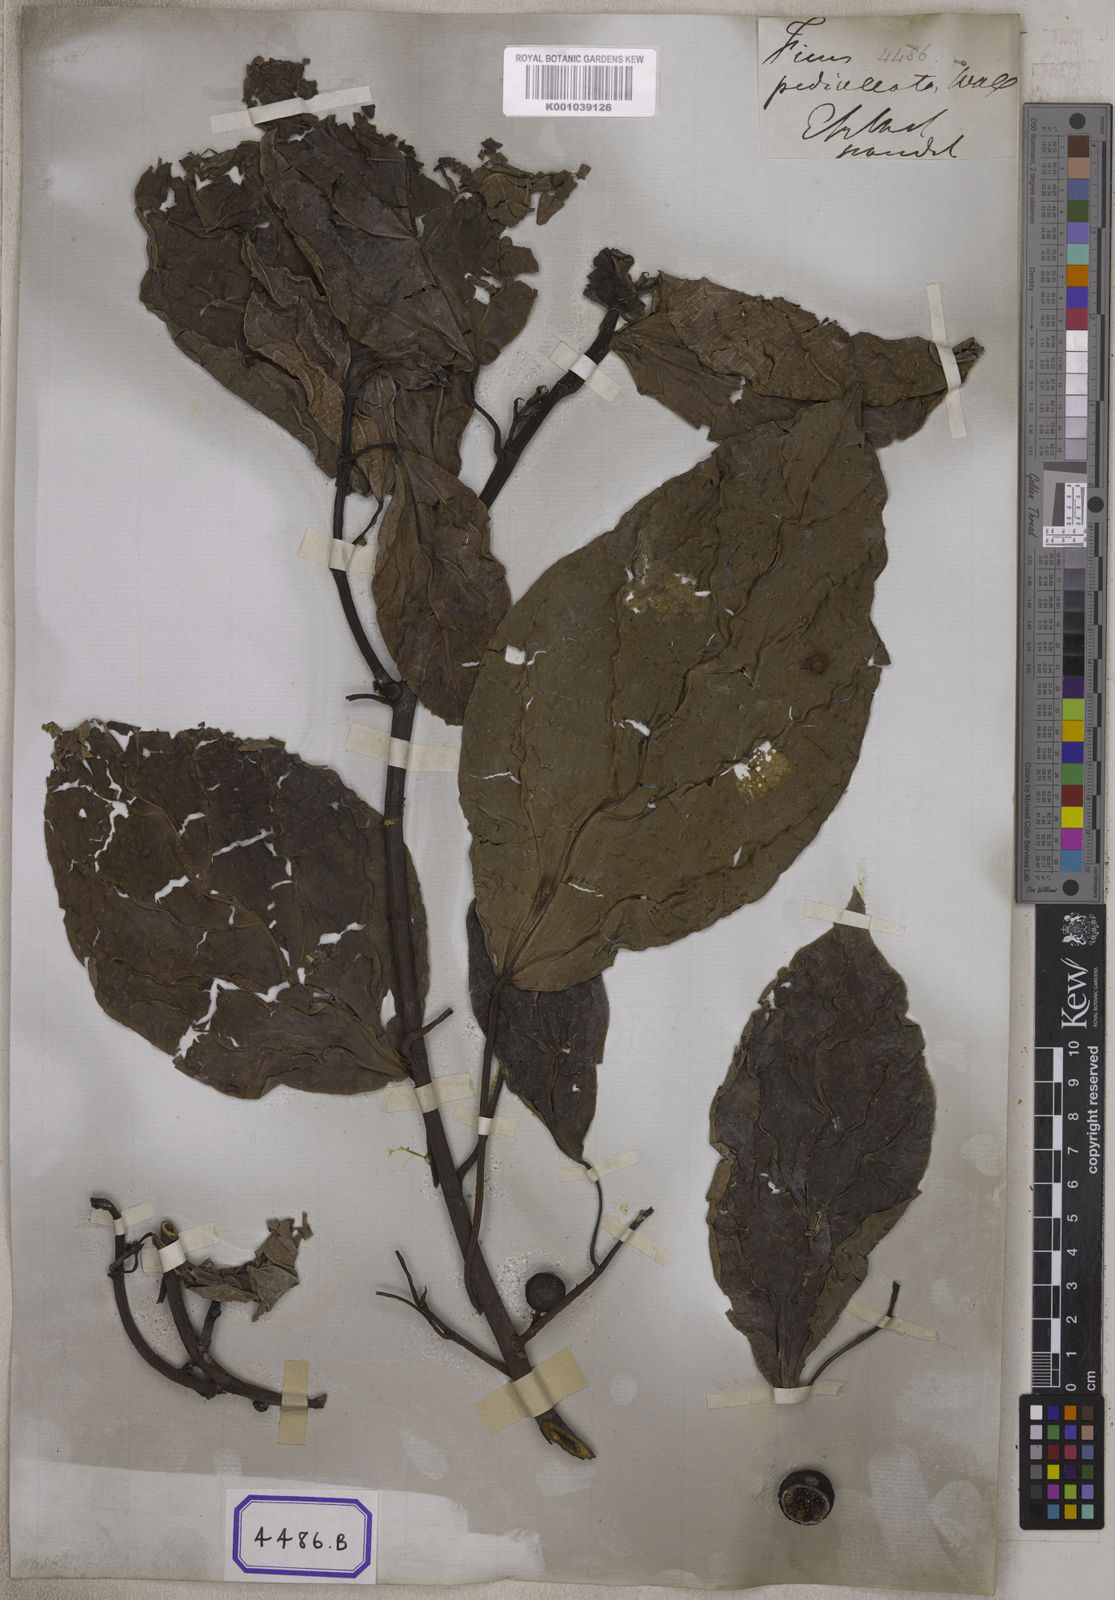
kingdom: Plantae
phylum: Tracheophyta
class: Magnoliopsida
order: Rosales
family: Moraceae
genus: Ficus
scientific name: Ficus
